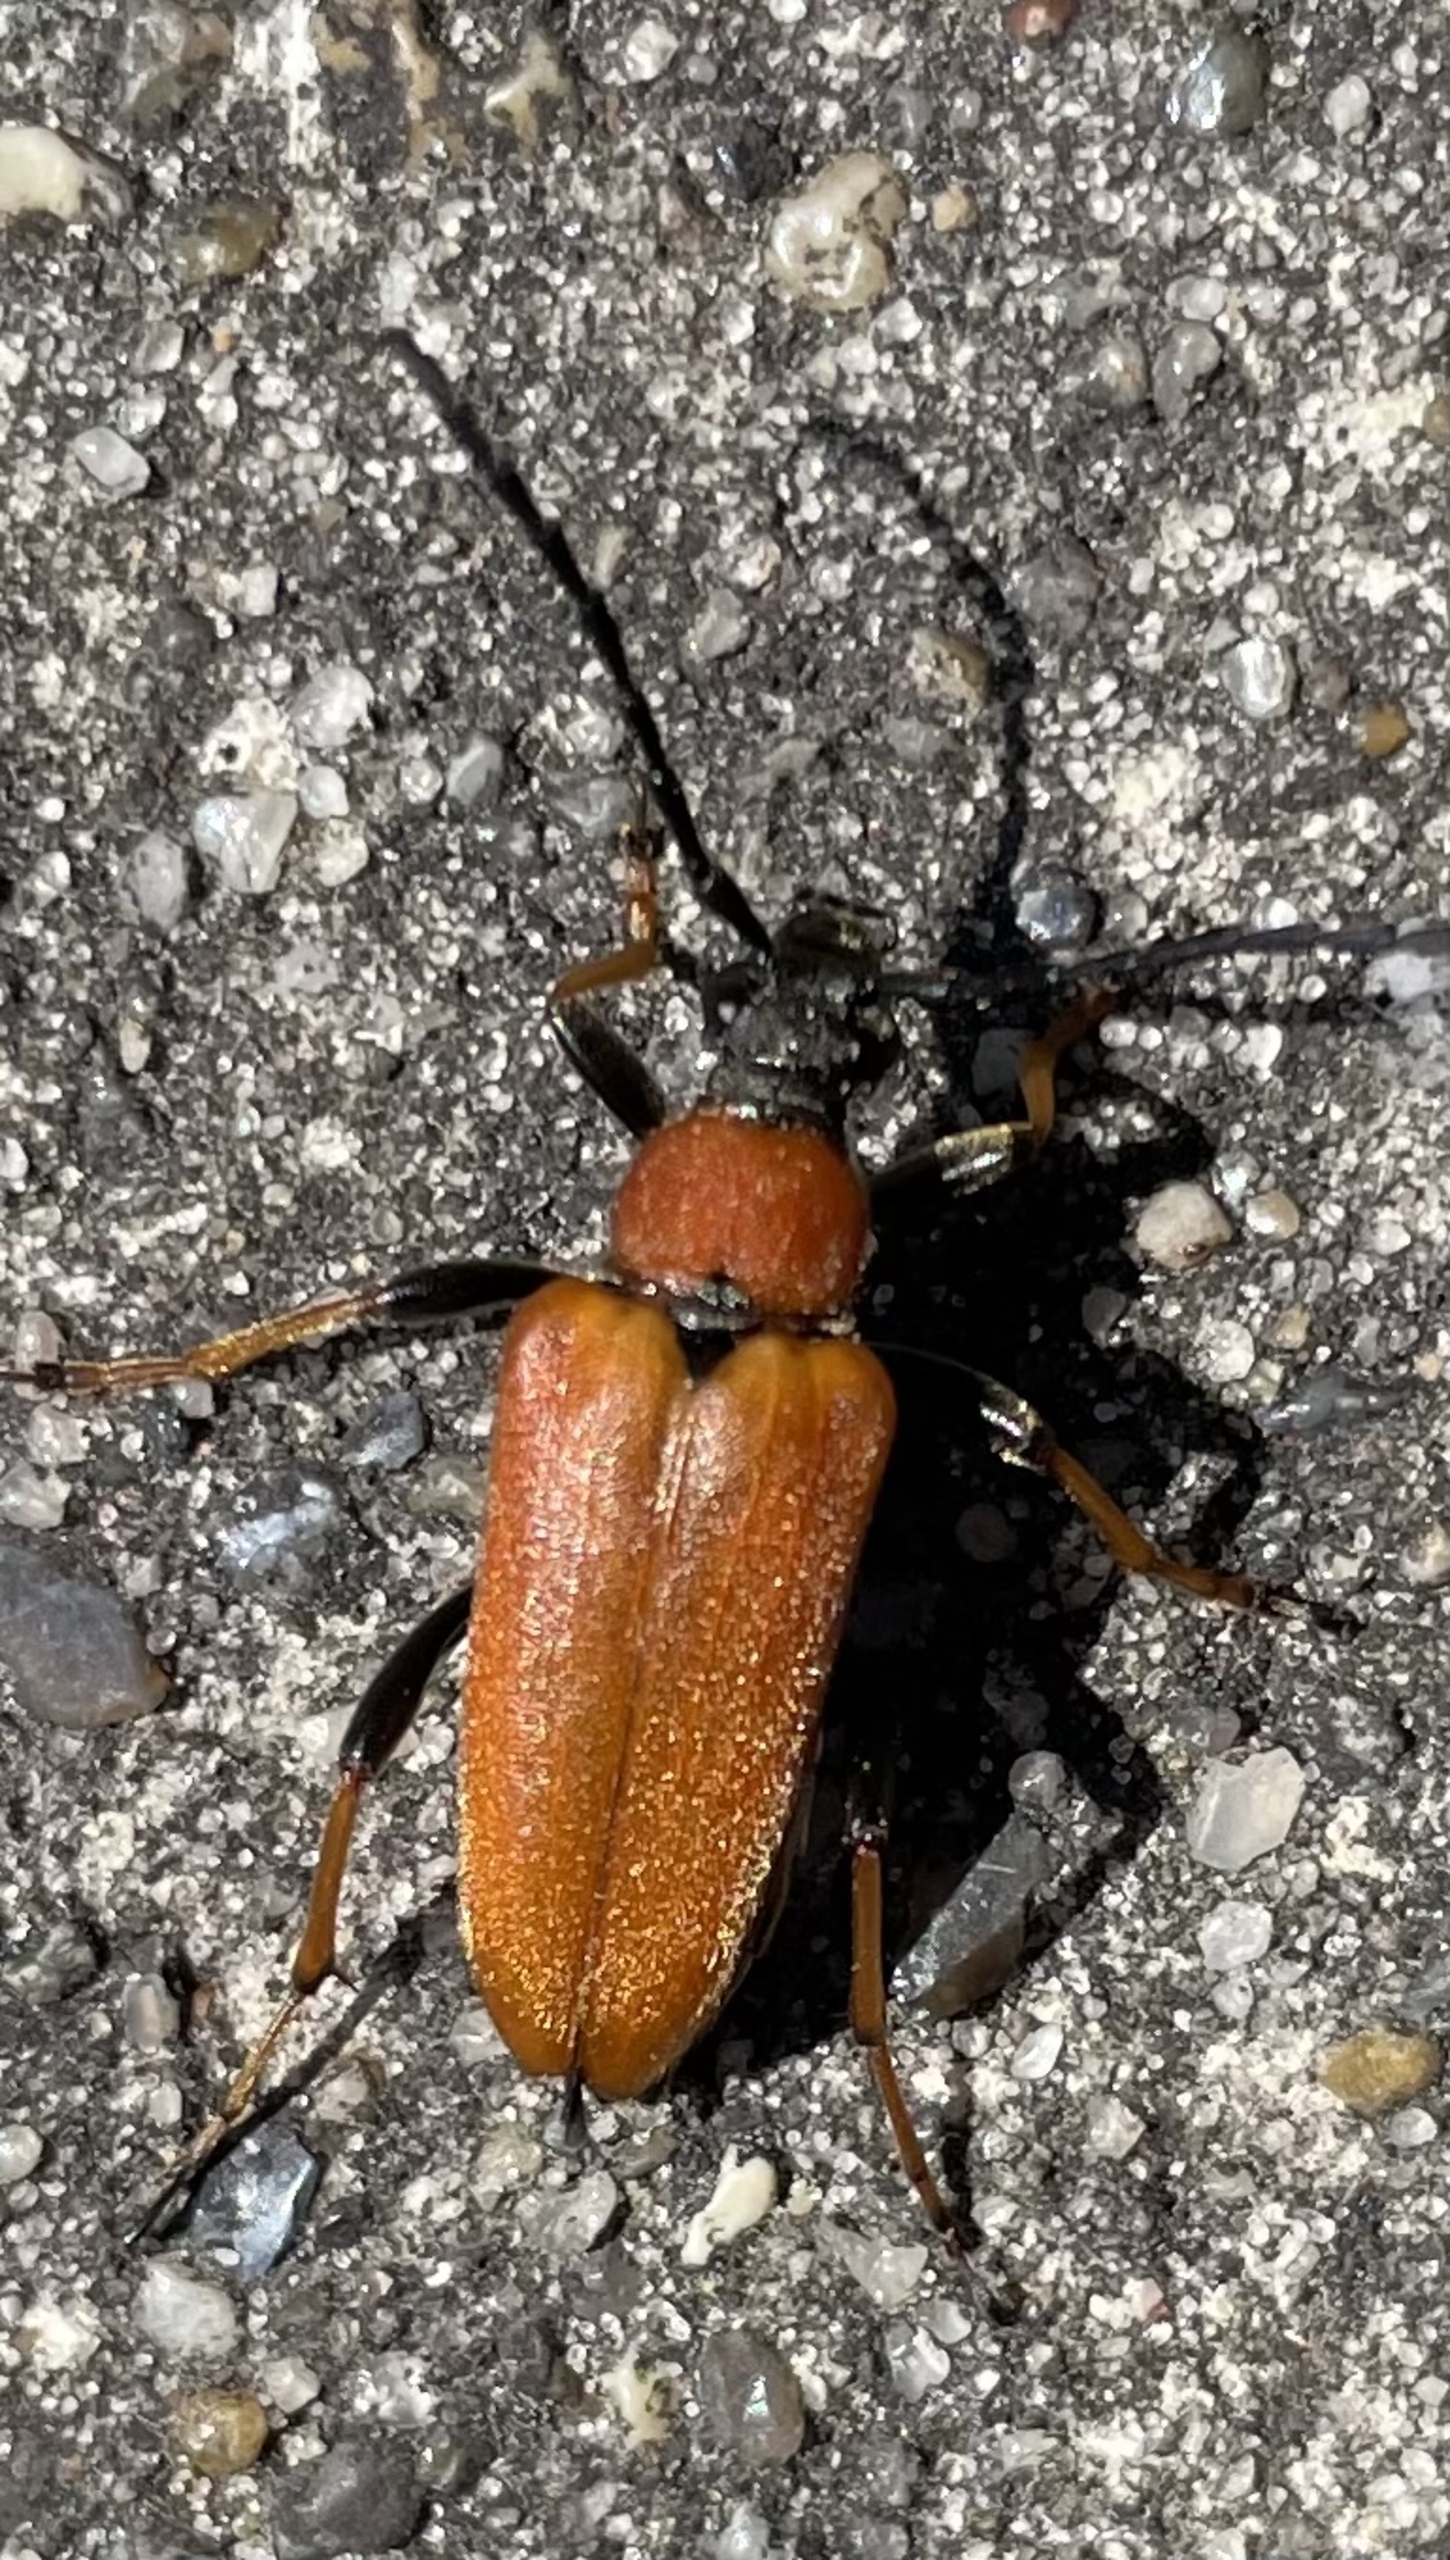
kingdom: Animalia
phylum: Arthropoda
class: Insecta
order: Coleoptera
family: Cerambycidae
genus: Stictoleptura
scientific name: Stictoleptura rubra
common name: Rød blomsterbuk
